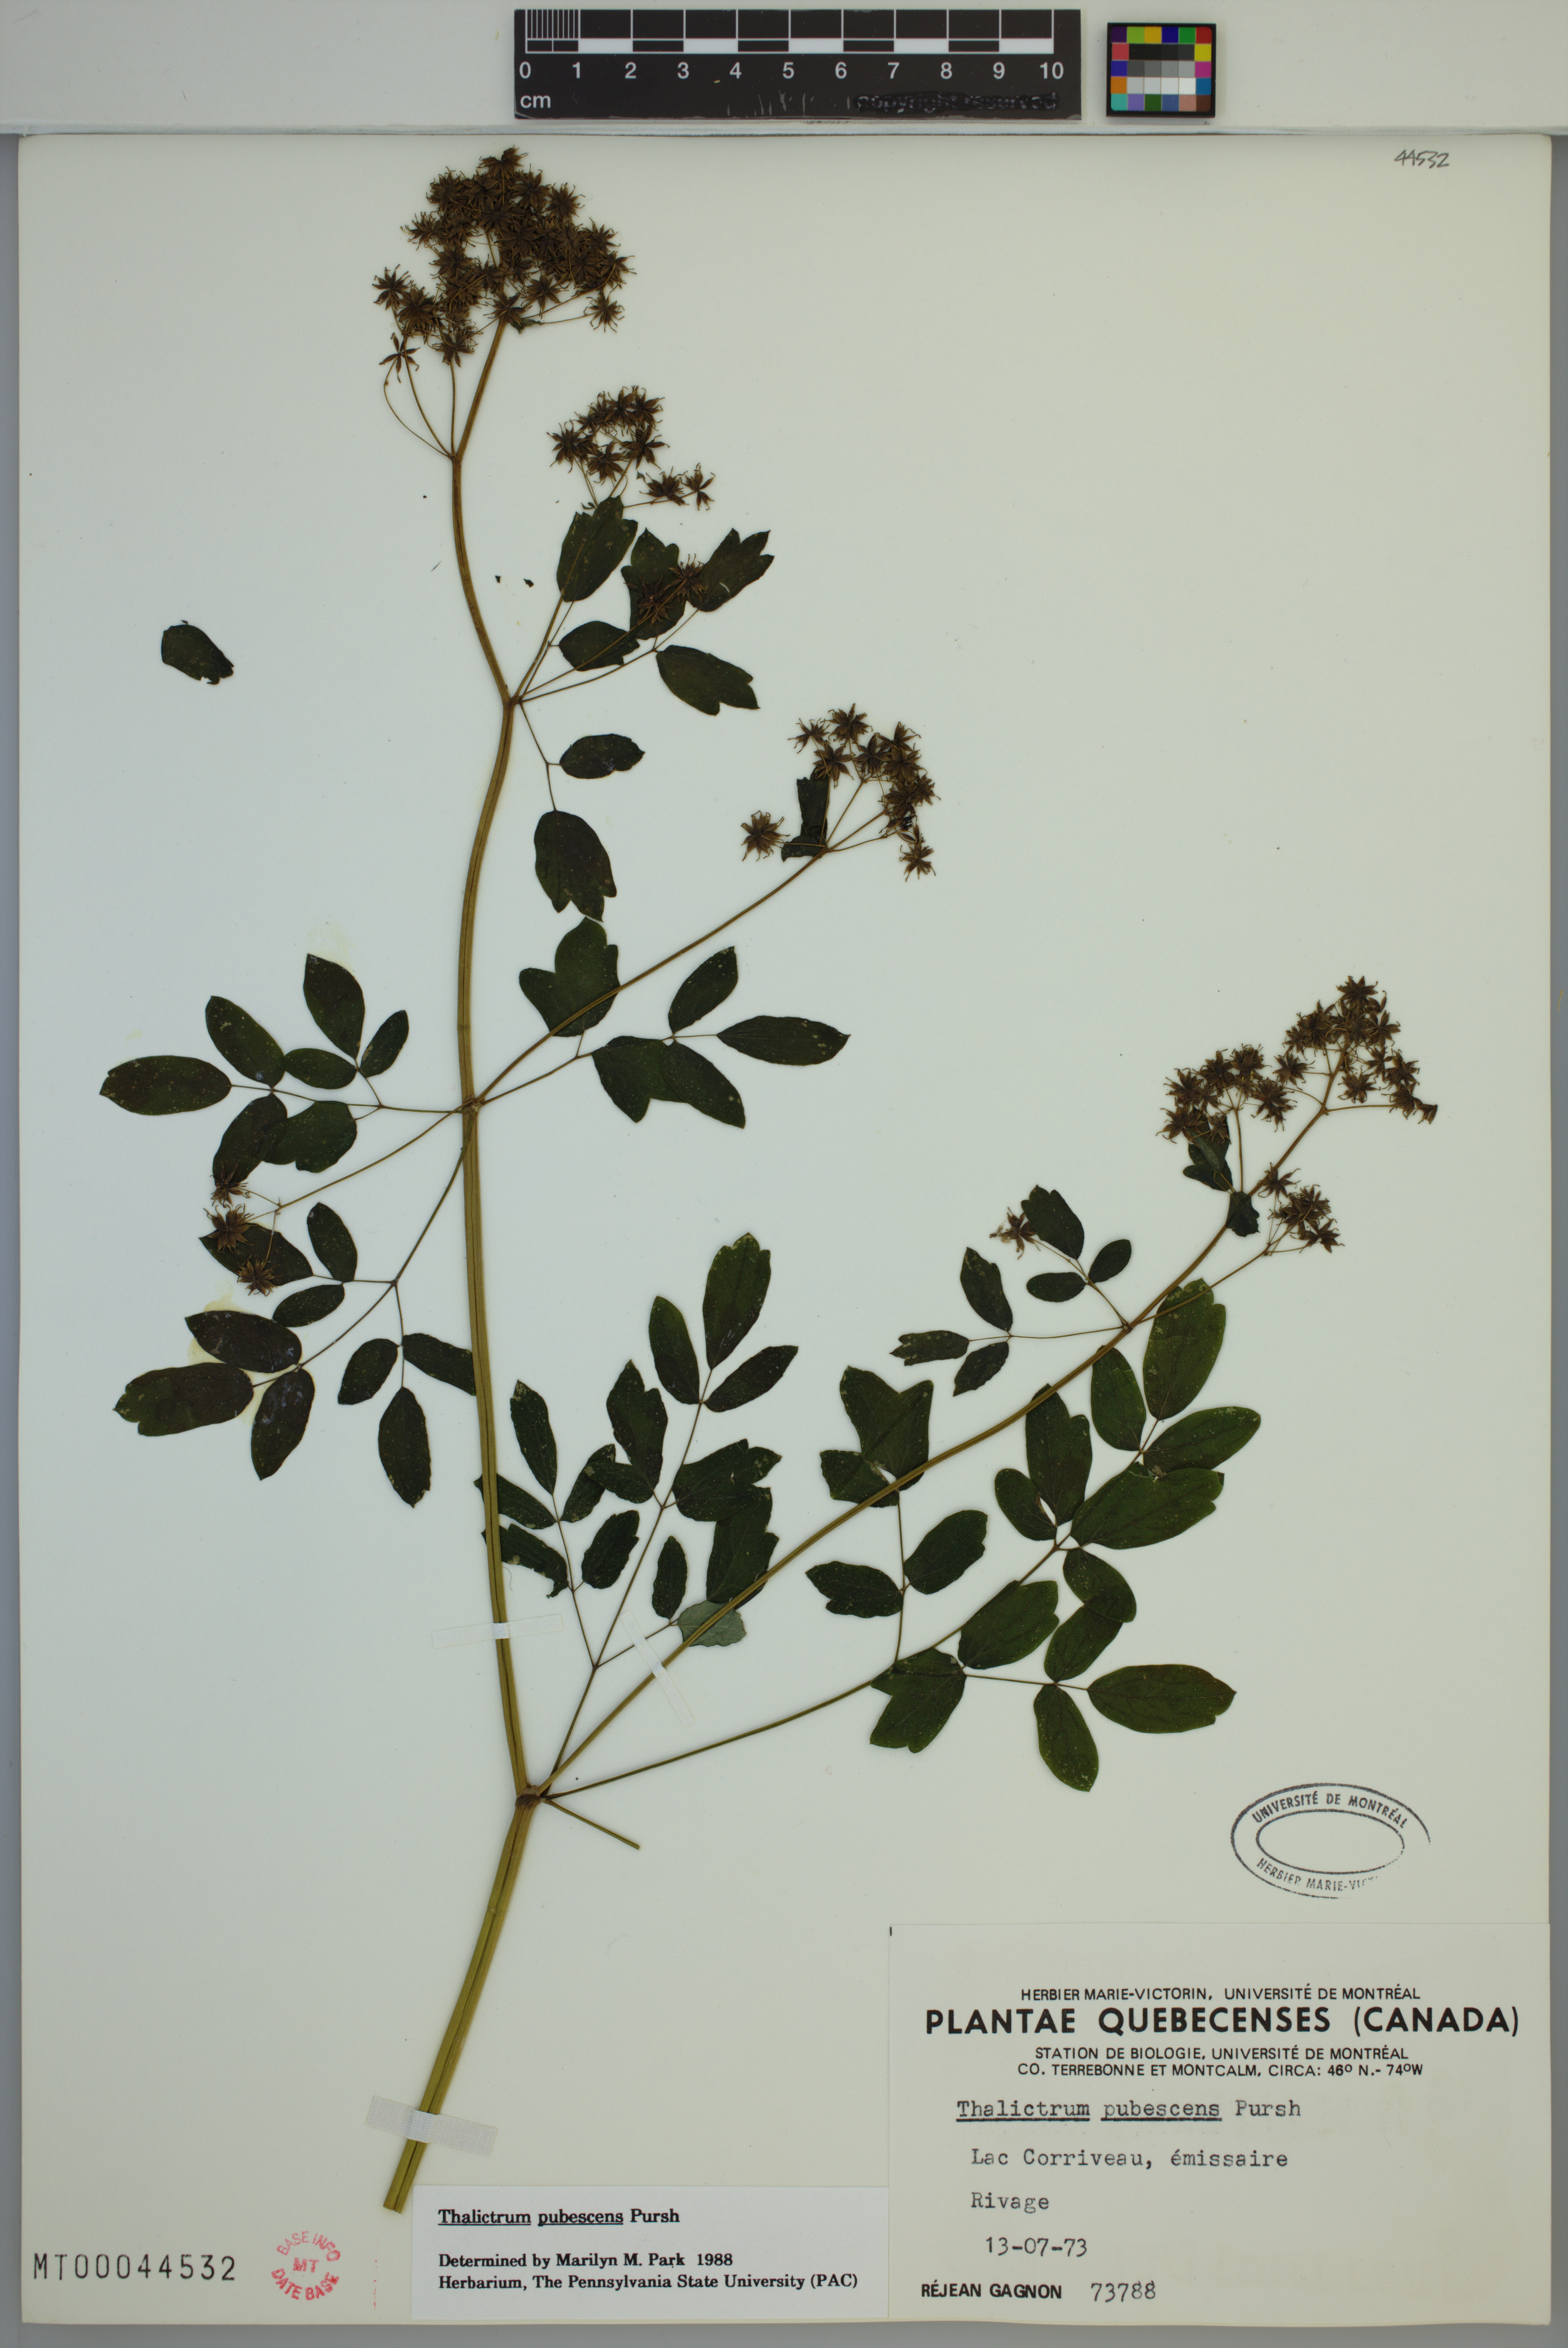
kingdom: Plantae
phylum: Tracheophyta
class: Magnoliopsida
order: Ranunculales
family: Ranunculaceae
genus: Thalictrum
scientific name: Thalictrum pubescens
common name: King-of-the-meadow
